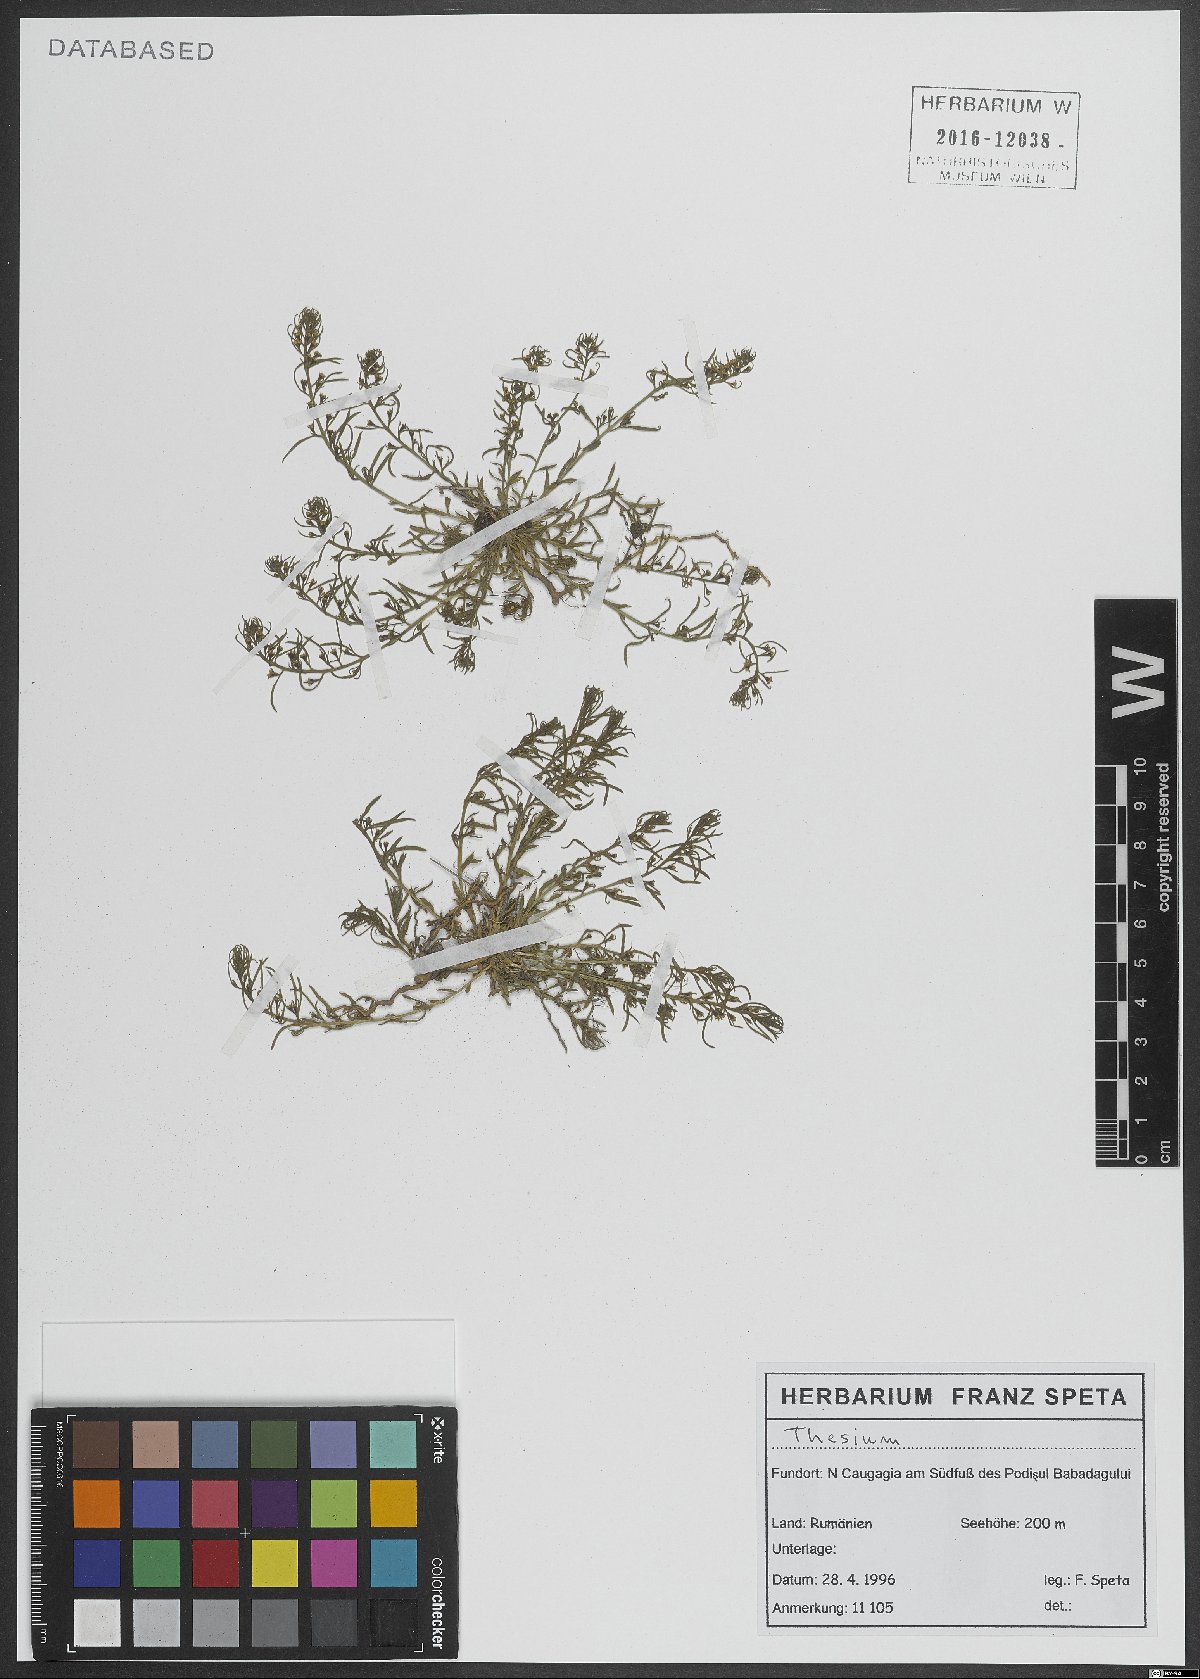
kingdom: Plantae
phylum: Tracheophyta
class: Magnoliopsida
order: Santalales
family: Thesiaceae
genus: Thesium
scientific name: Thesium
